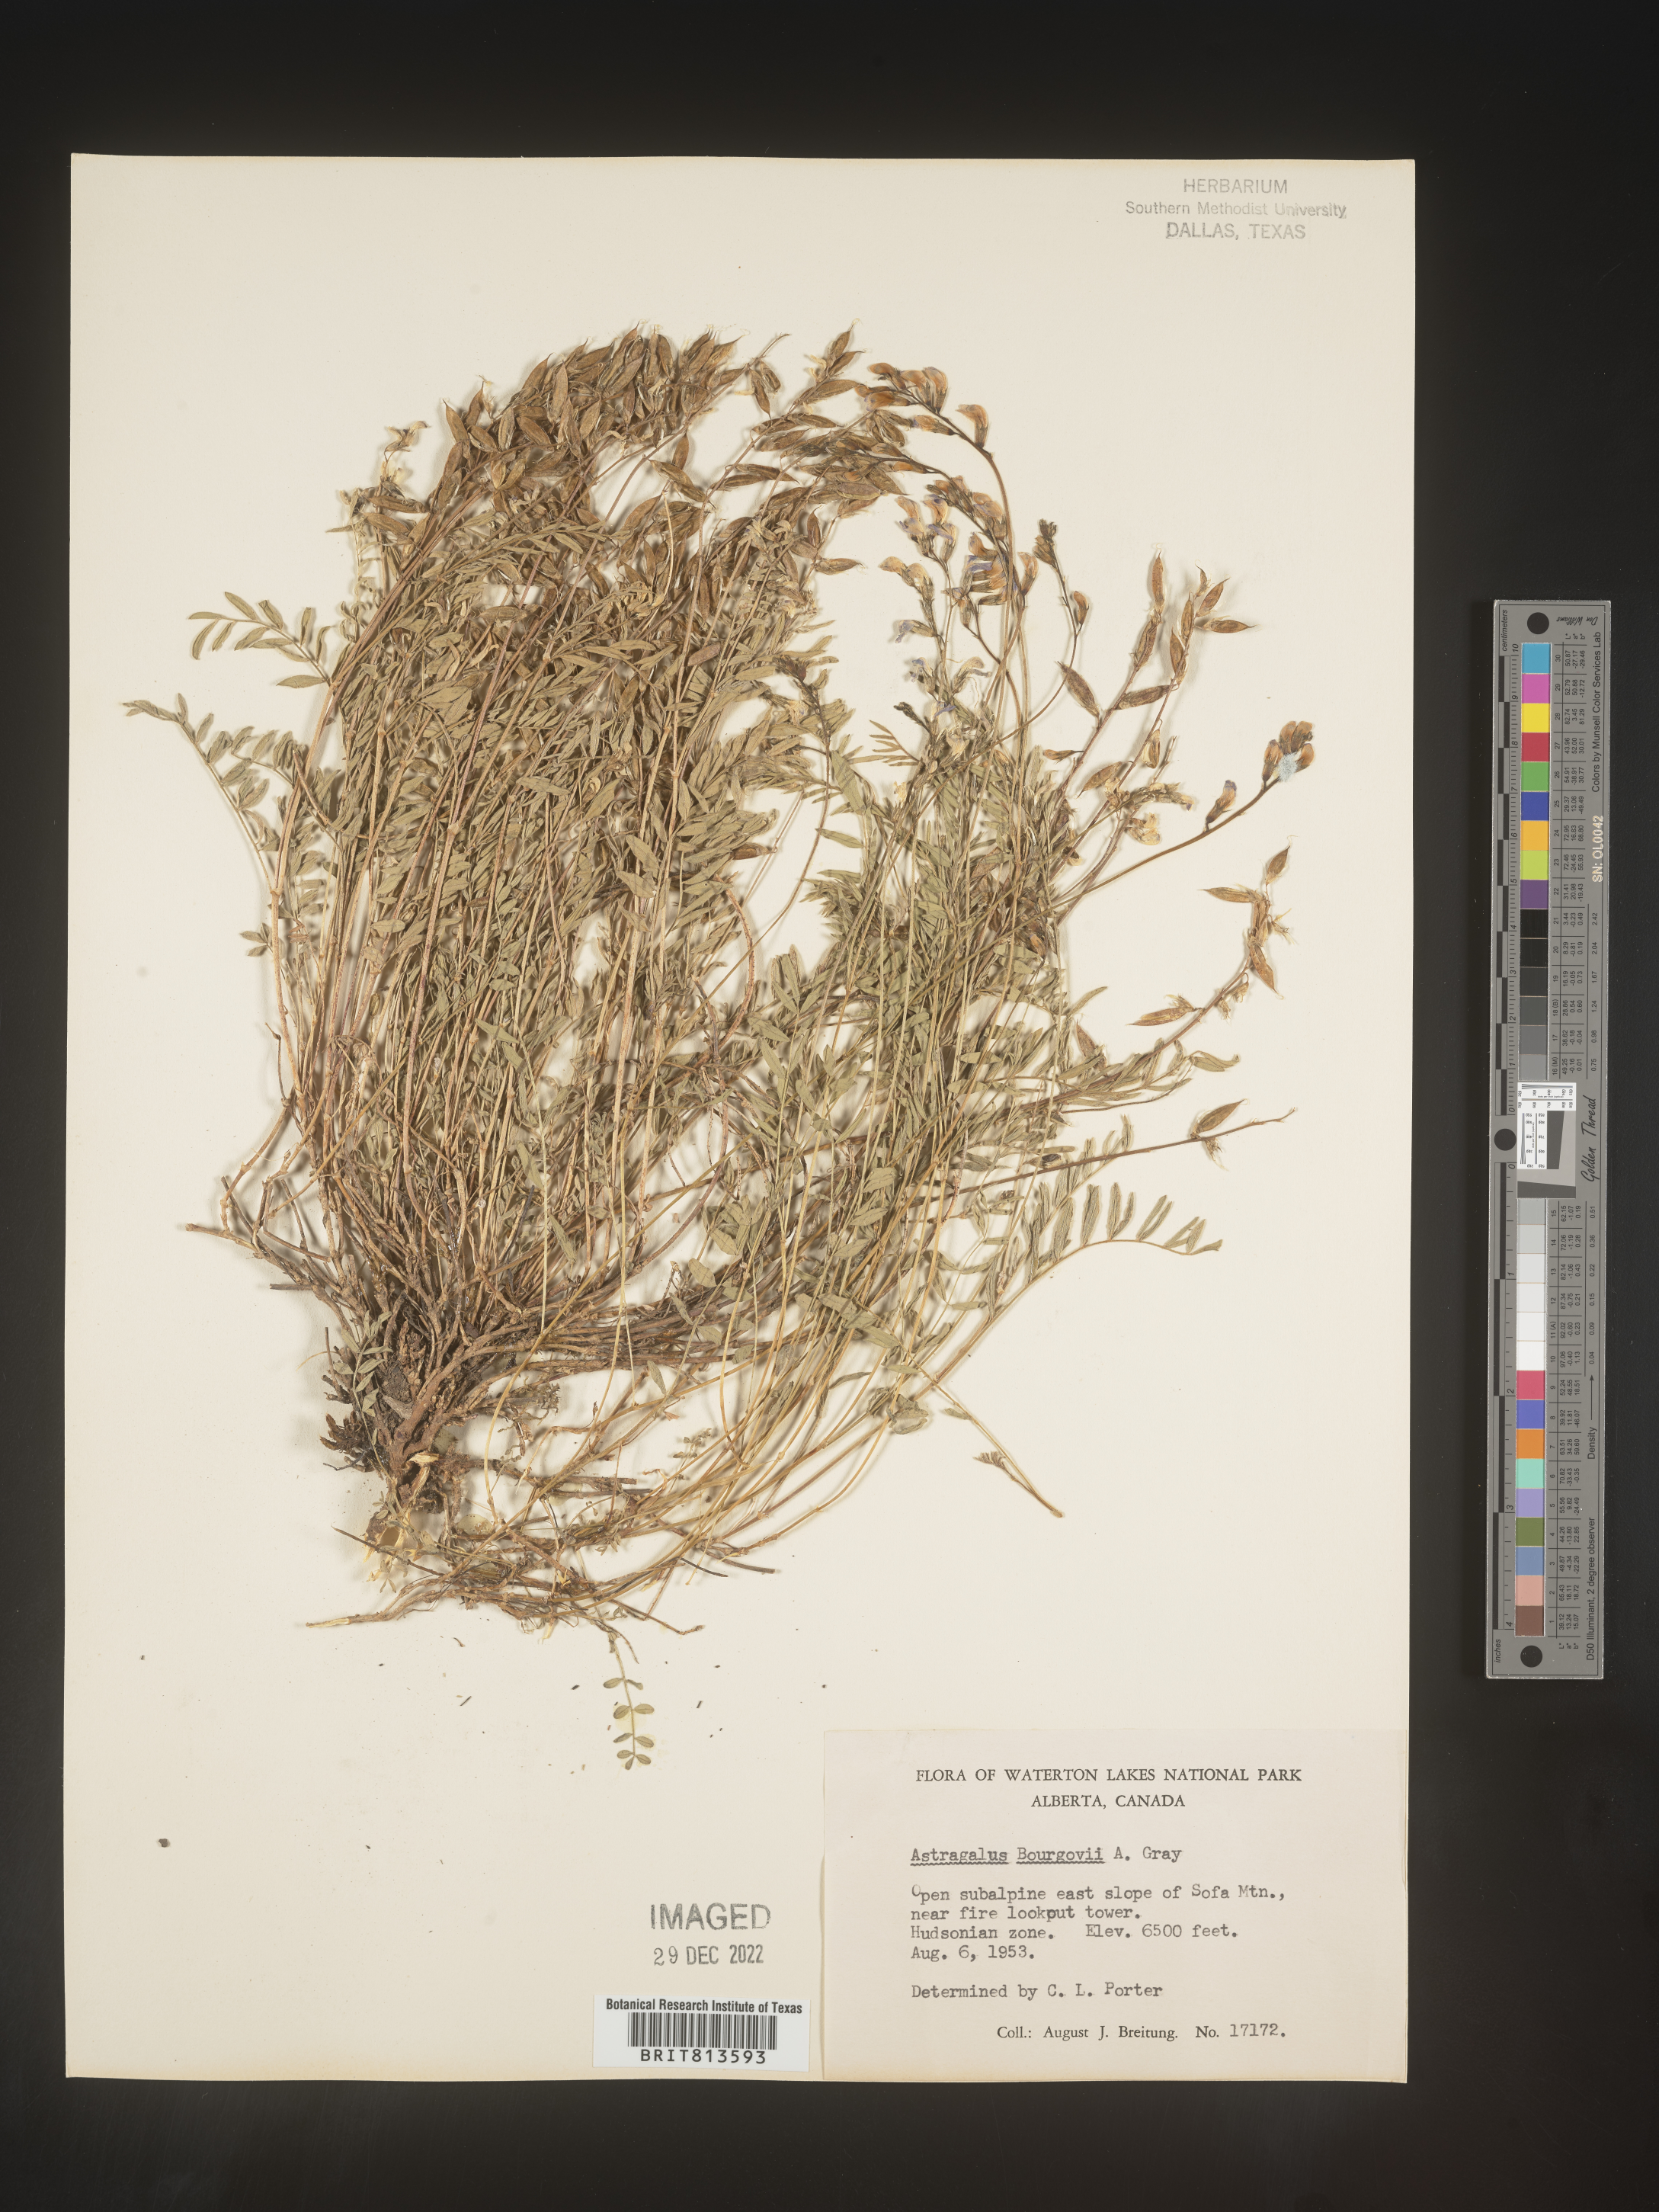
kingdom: Plantae
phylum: Tracheophyta
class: Magnoliopsida
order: Fabales
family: Fabaceae
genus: Astragalus
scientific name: Astragalus
